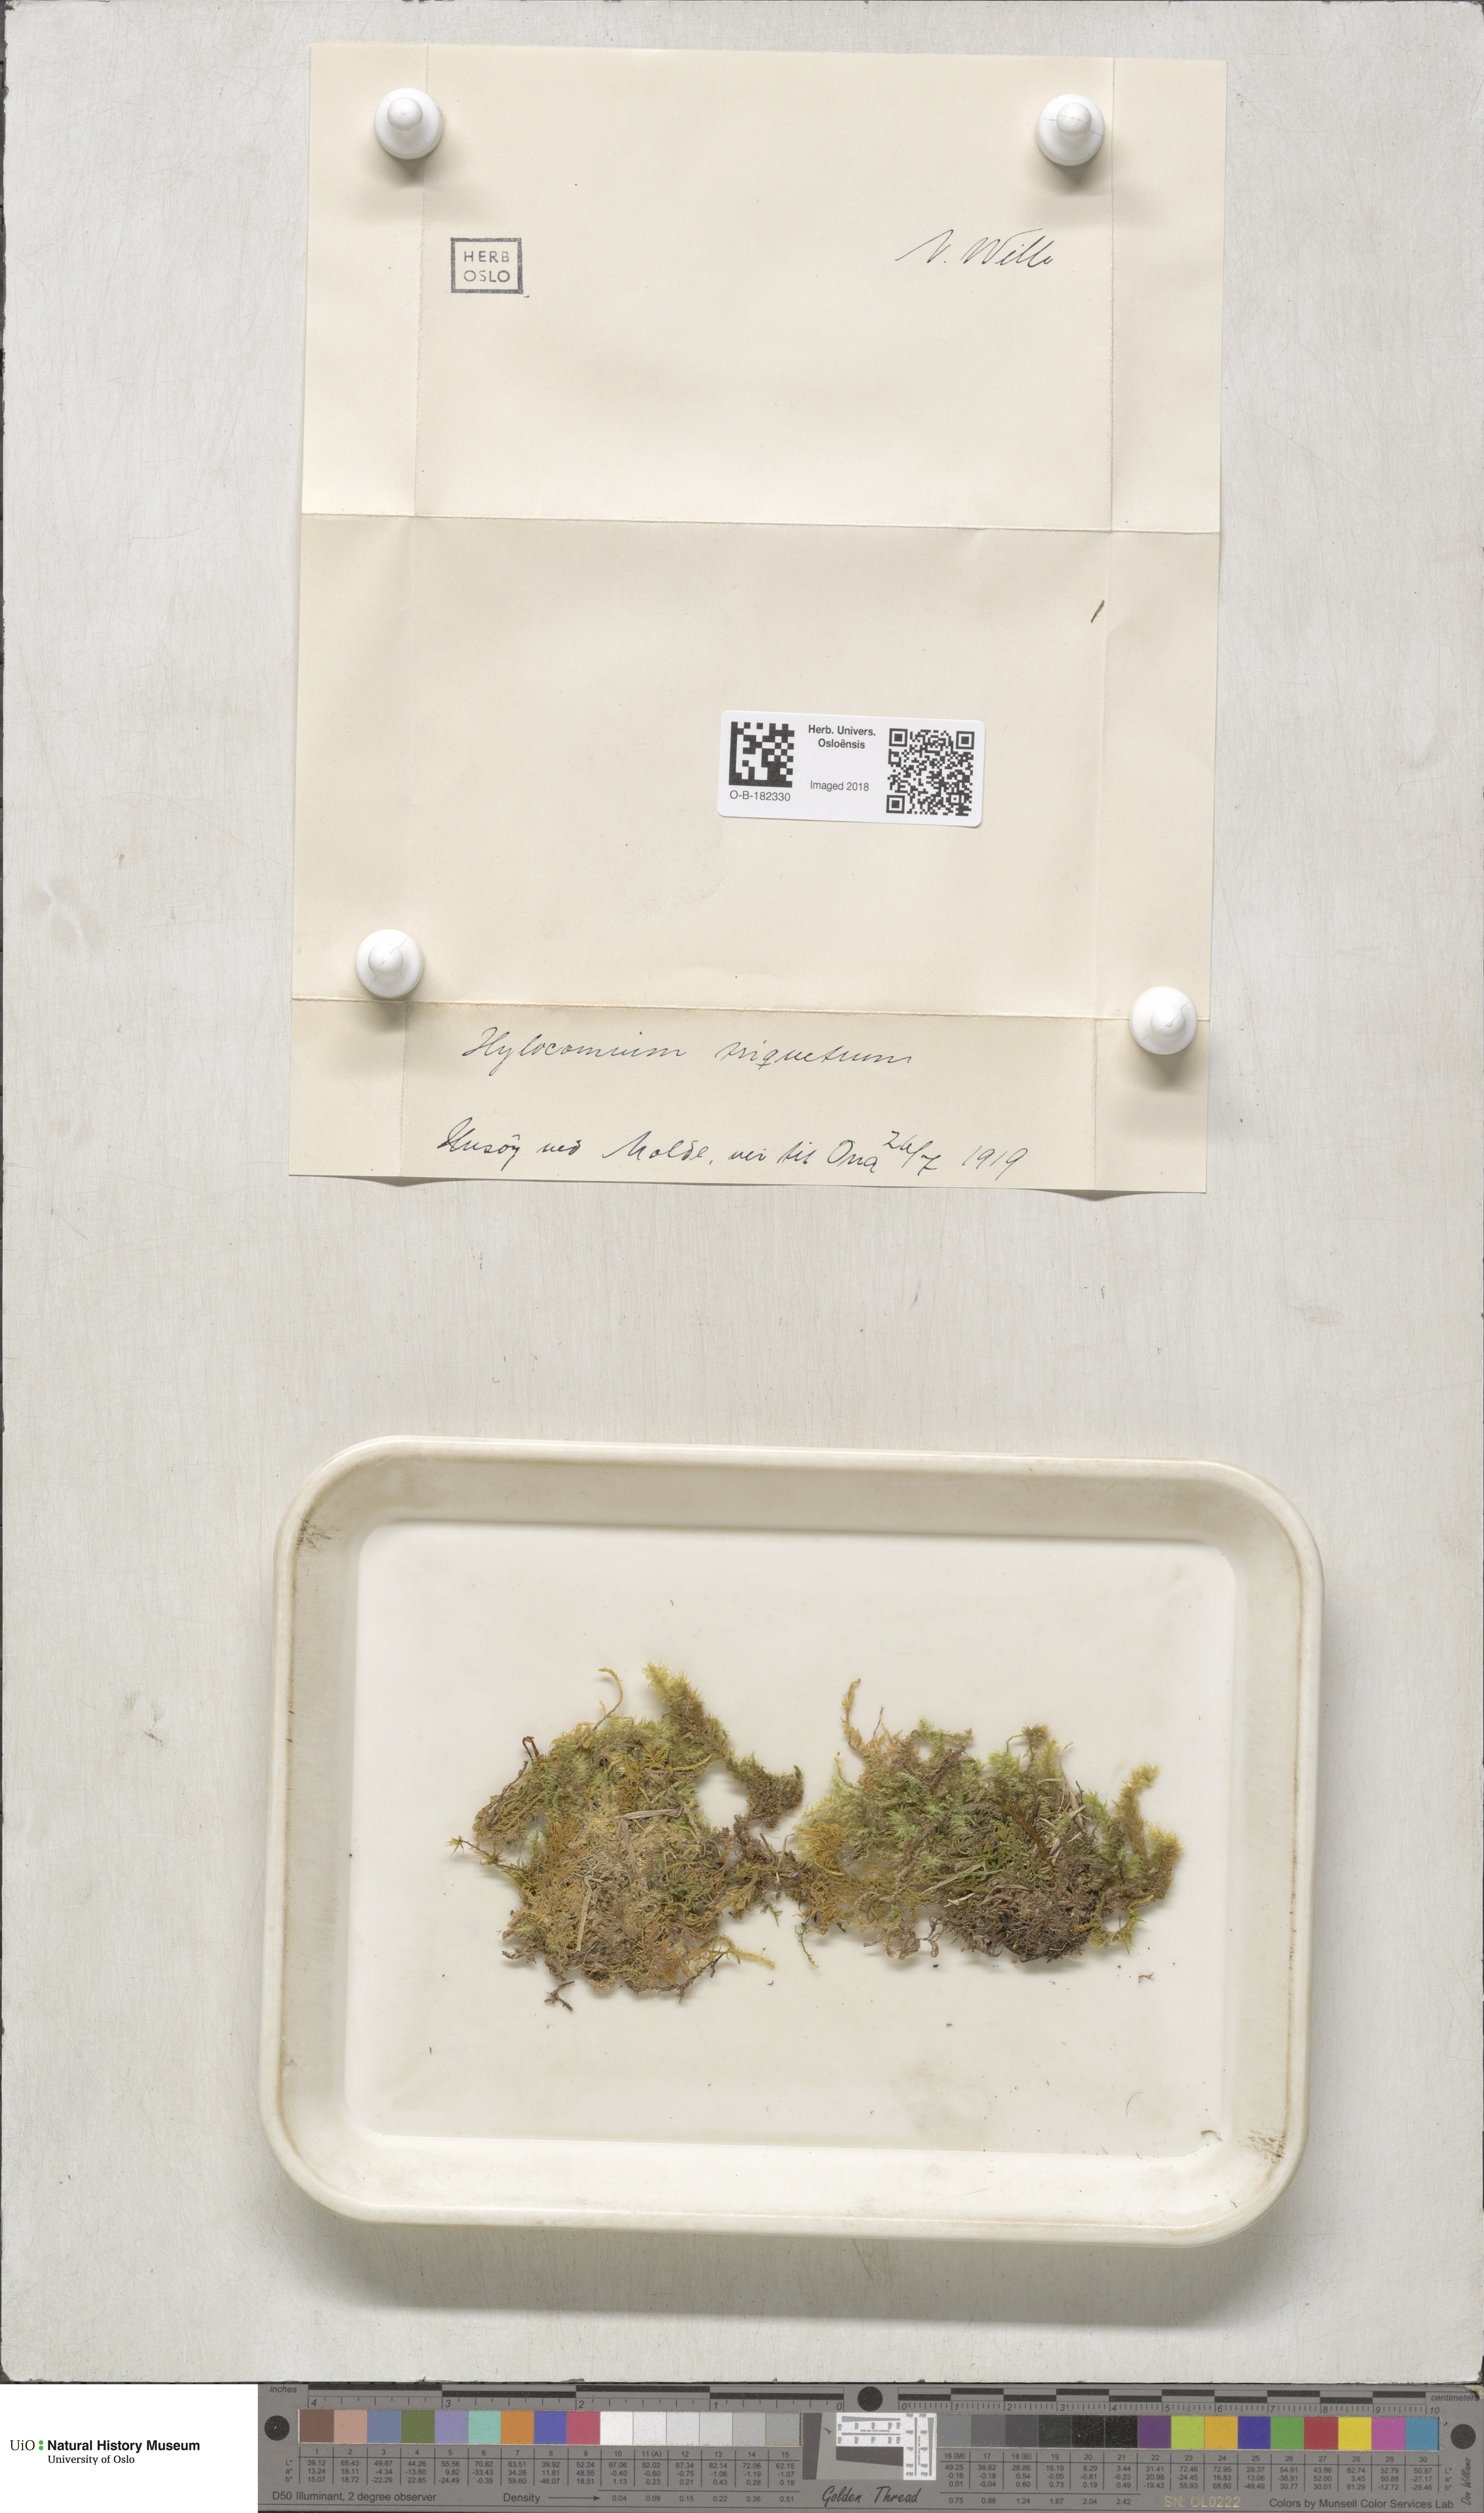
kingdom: Plantae
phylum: Bryophyta
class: Bryopsida
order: Hypnales
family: Hylocomiaceae
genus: Hylocomiadelphus
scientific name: Hylocomiadelphus triquetrus
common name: Rough goose neck moss
